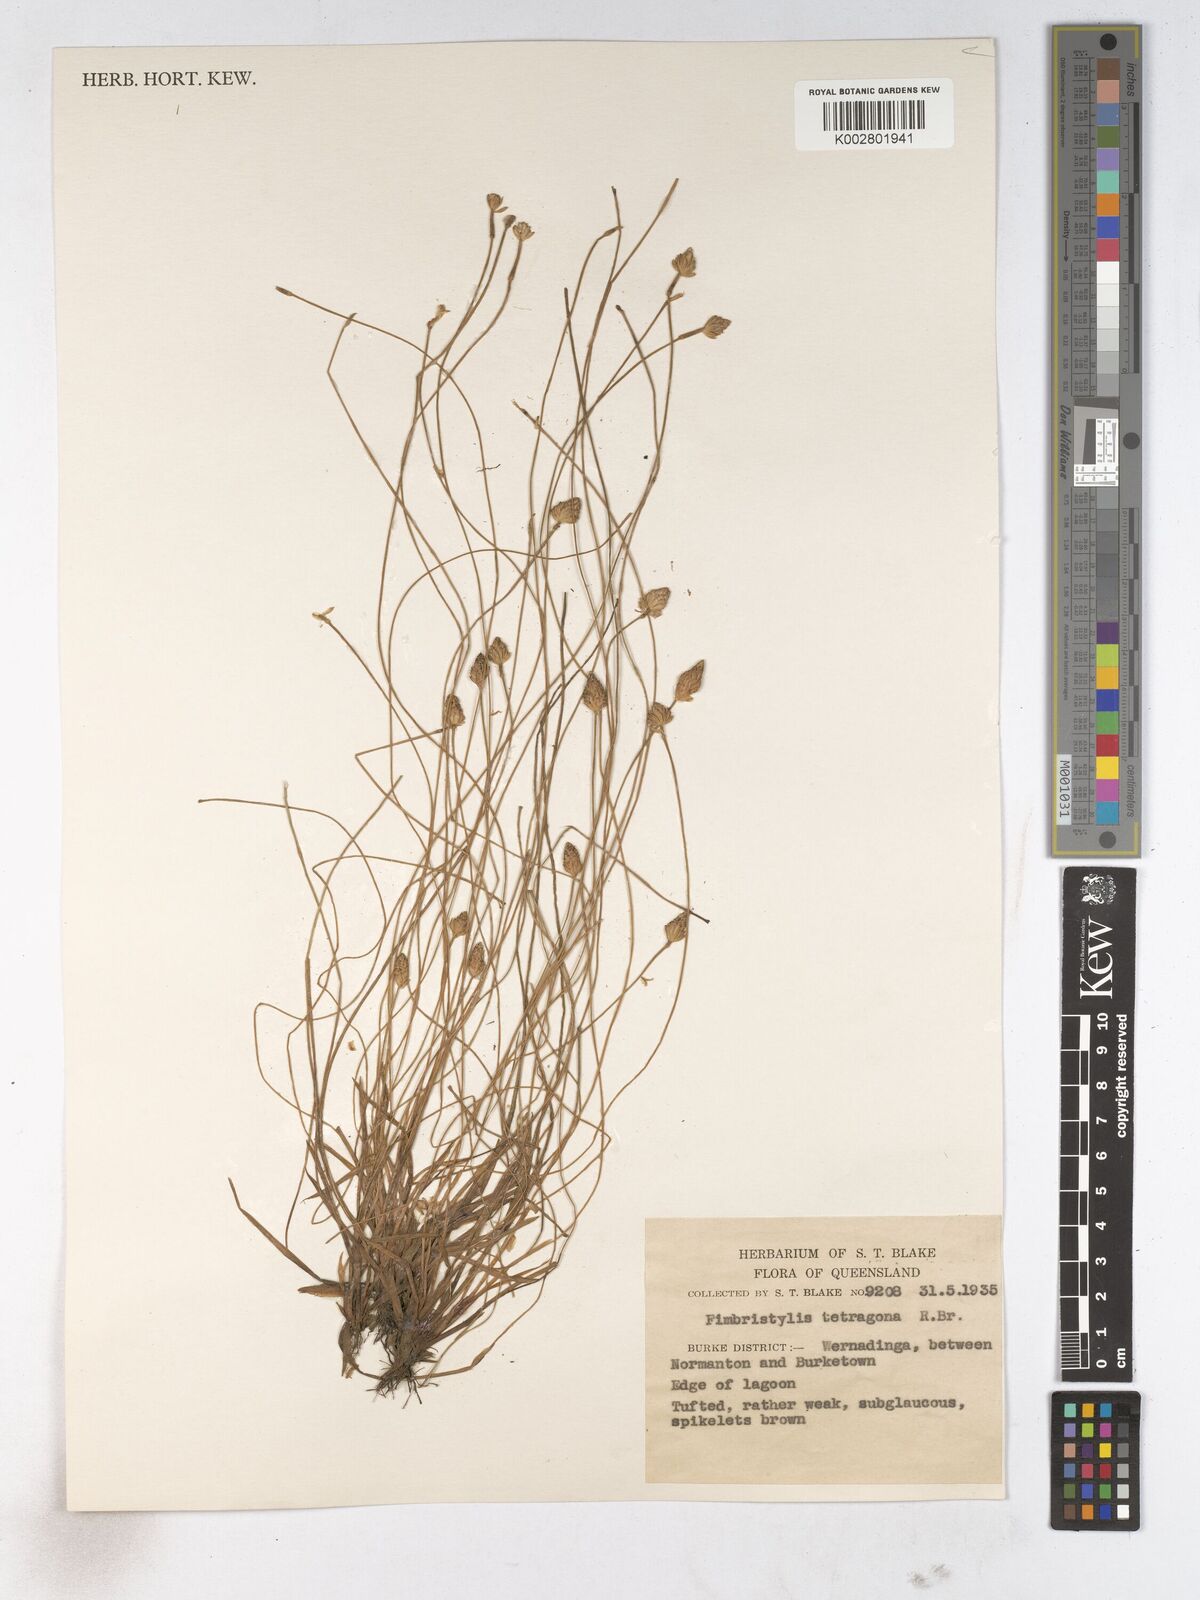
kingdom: Plantae
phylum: Tracheophyta
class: Liliopsida
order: Poales
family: Cyperaceae
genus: Fimbristylis
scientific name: Fimbristylis tetragona
